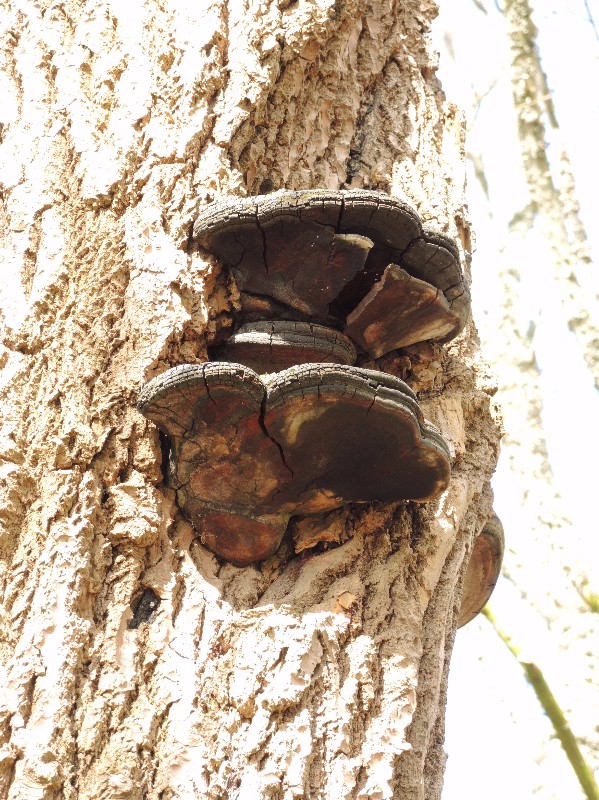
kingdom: Fungi
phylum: Basidiomycota
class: Agaricomycetes
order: Hymenochaetales
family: Hymenochaetaceae
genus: Phellinus
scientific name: Phellinus populicola
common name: poppel-ildporesvamp
